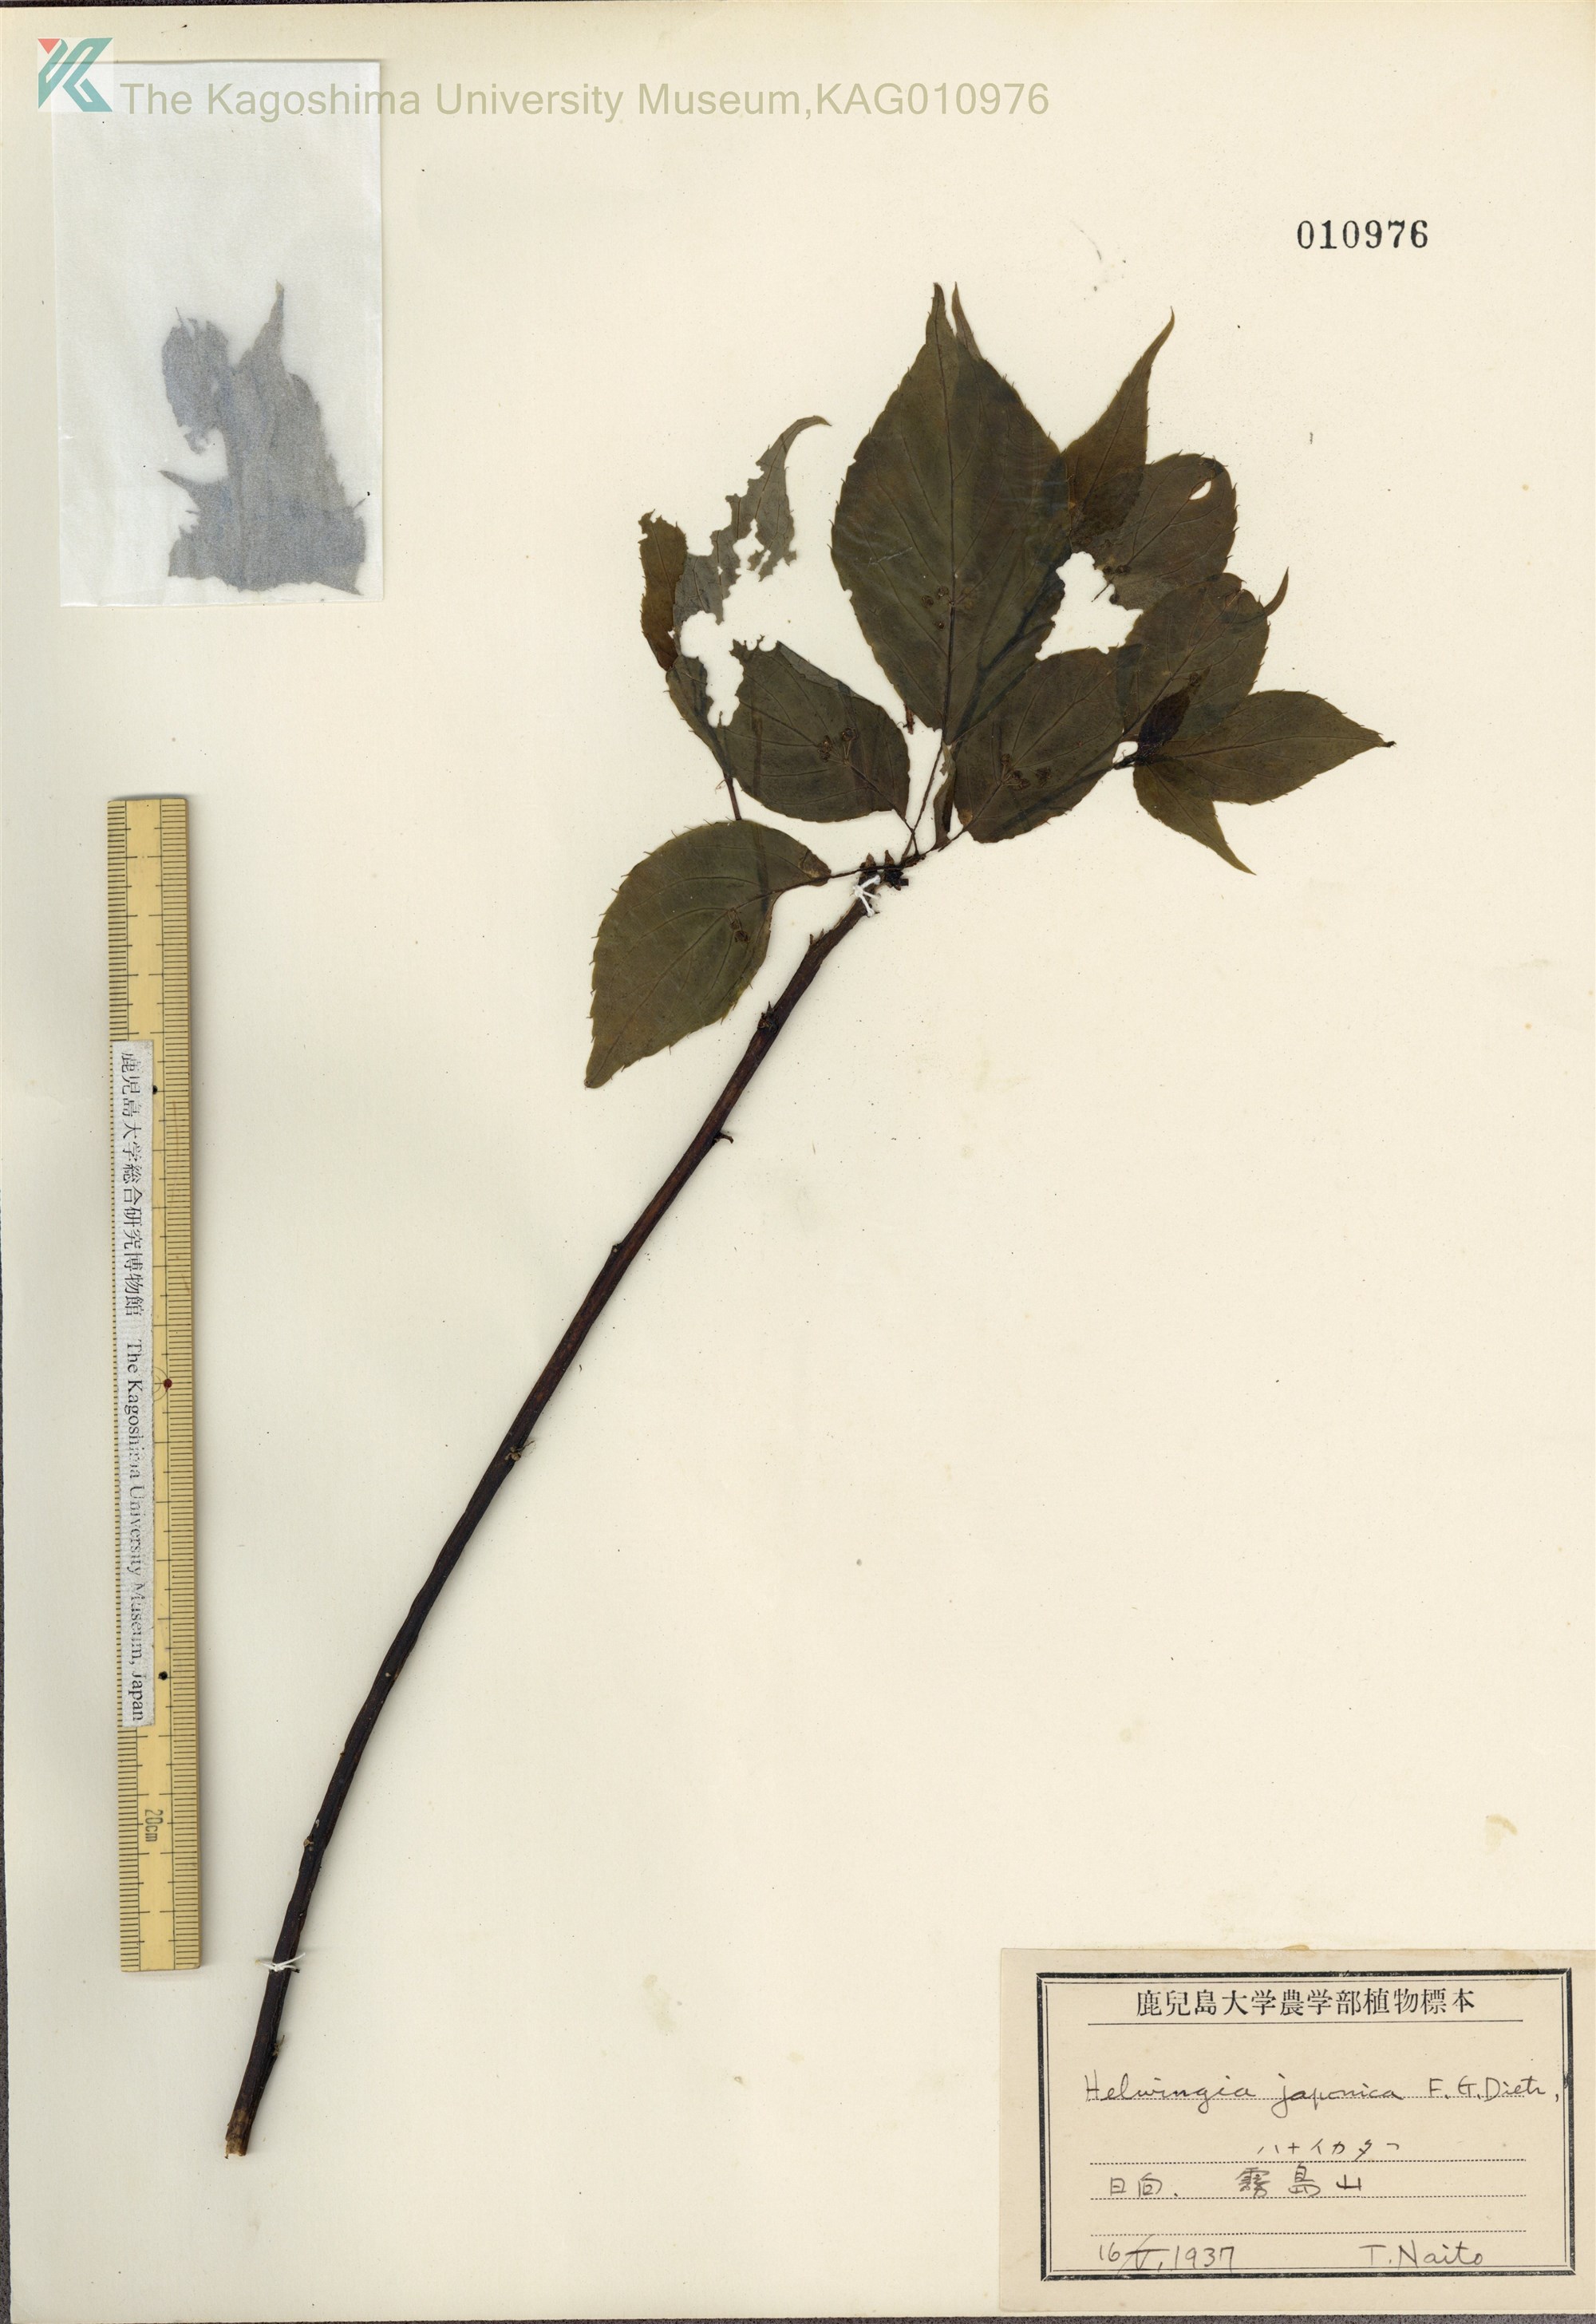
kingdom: Plantae
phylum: Tracheophyta
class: Magnoliopsida
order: Aquifoliales
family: Helwingiaceae
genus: Helwingia
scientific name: Helwingia japonica
